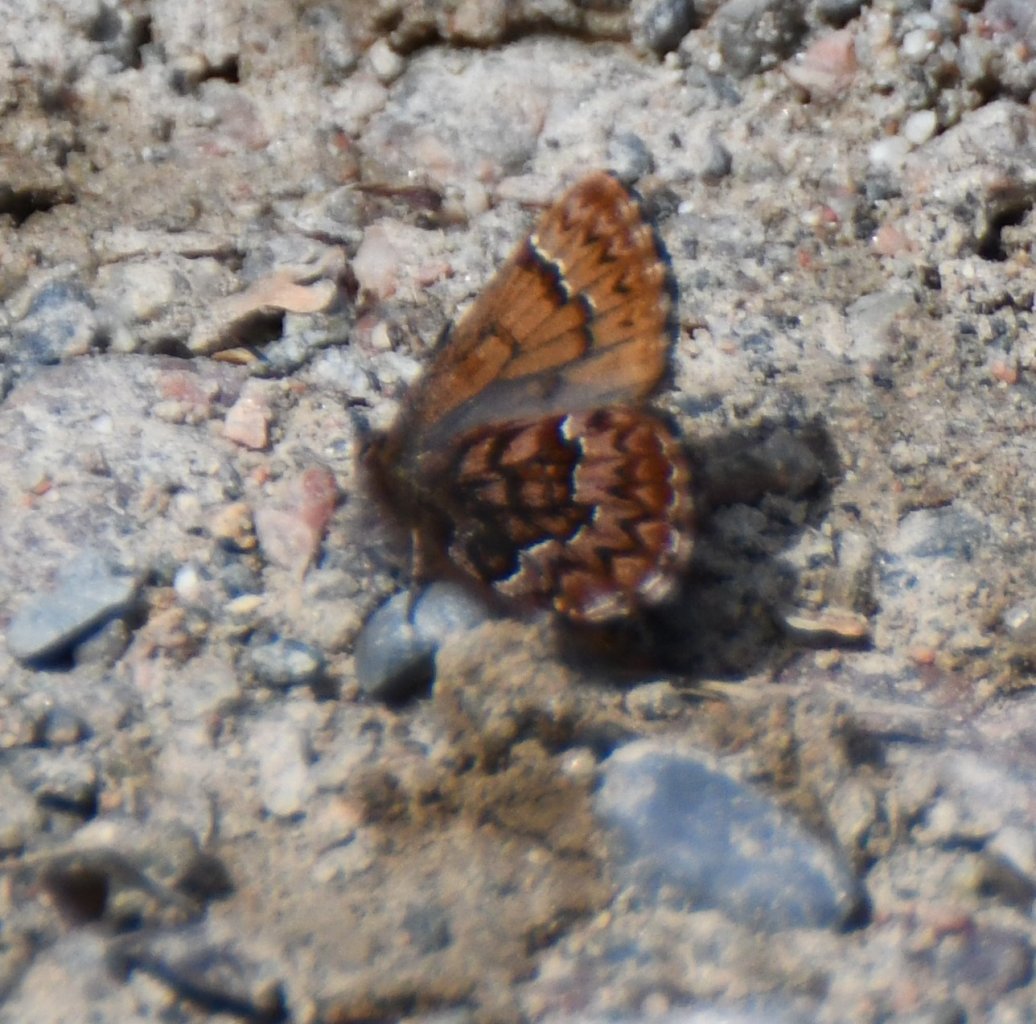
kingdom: Animalia
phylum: Arthropoda
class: Insecta
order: Lepidoptera
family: Lycaenidae
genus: Incisalia
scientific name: Incisalia niphon
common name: Eastern Pine Elfin
